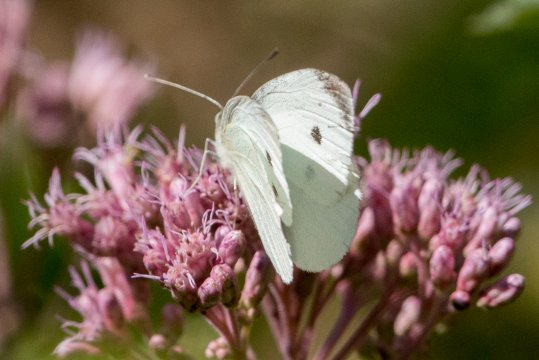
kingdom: Animalia
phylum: Arthropoda
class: Insecta
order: Lepidoptera
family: Pieridae
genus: Pieris
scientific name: Pieris rapae
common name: Cabbage White
